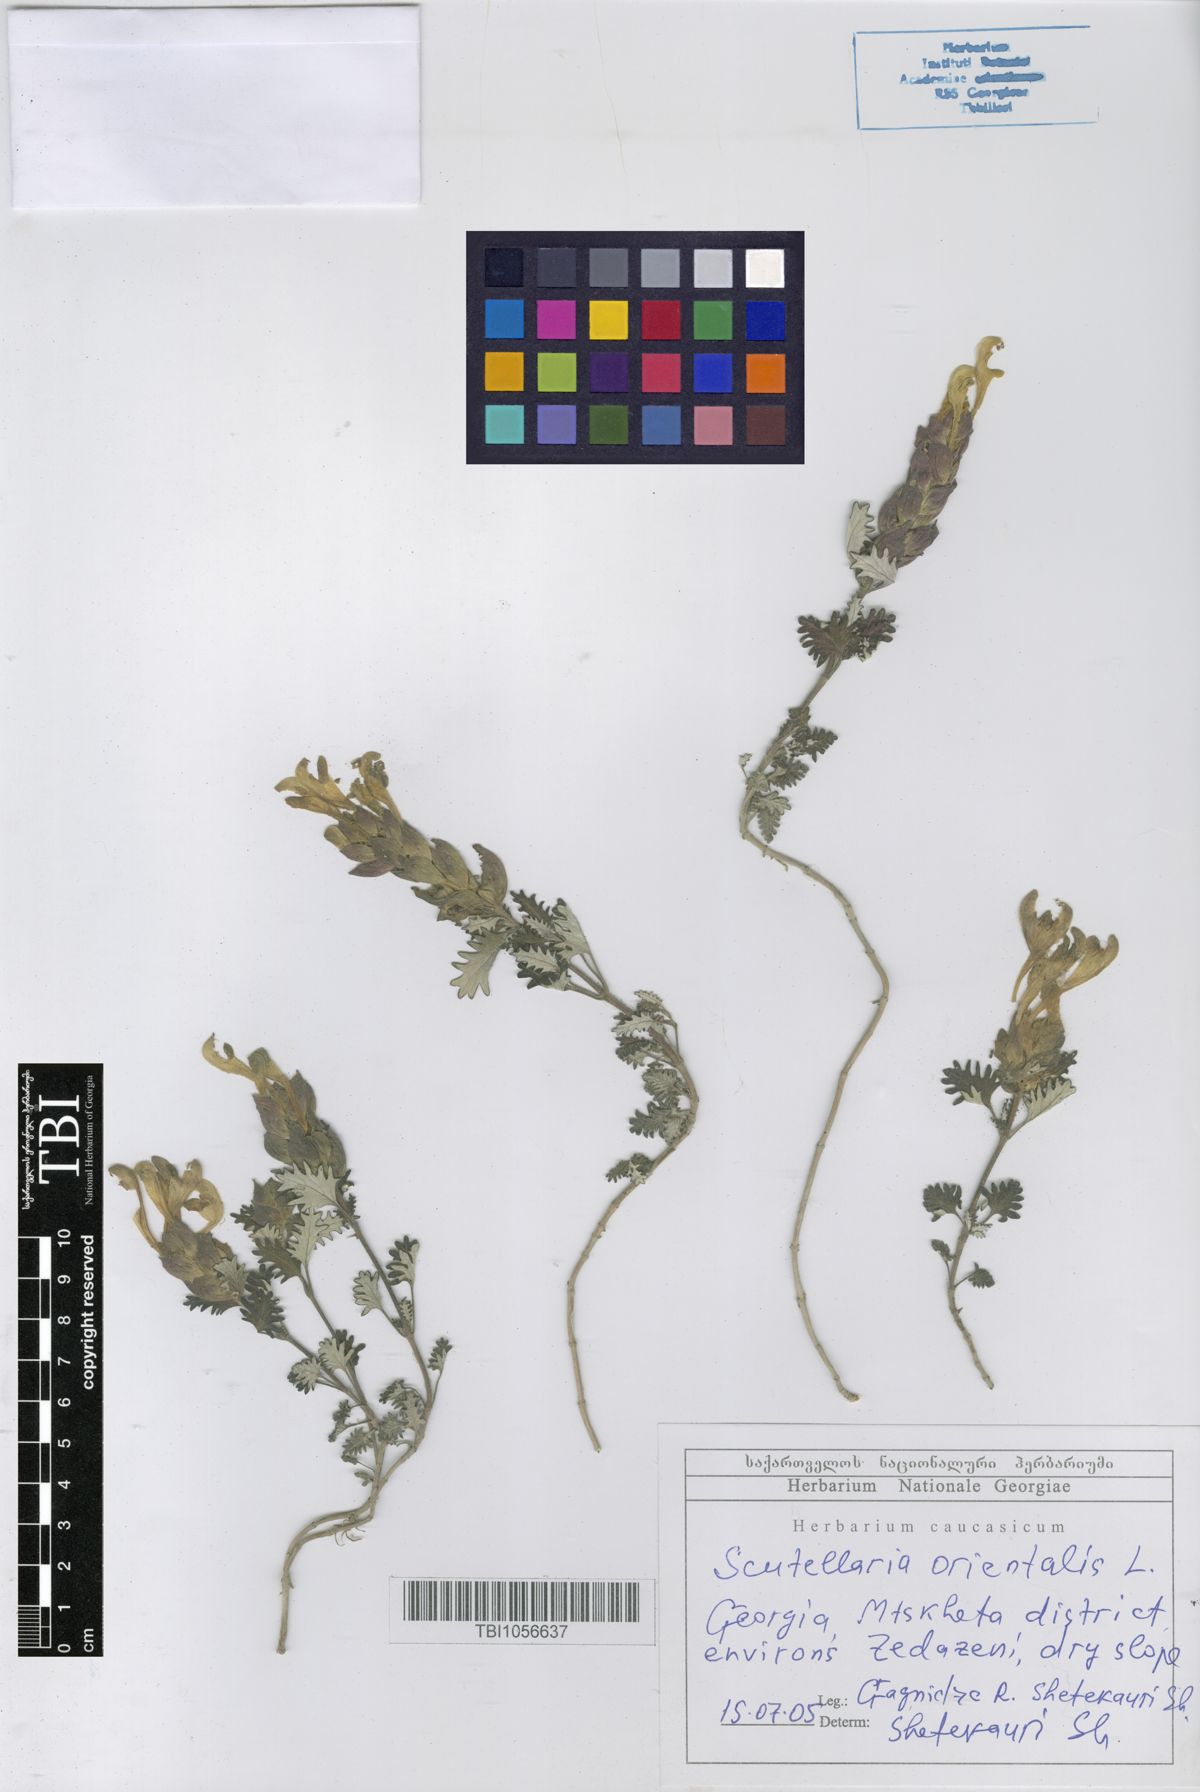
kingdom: Plantae
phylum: Tracheophyta
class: Magnoliopsida
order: Lamiales
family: Lamiaceae
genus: Scutellaria
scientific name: Scutellaria orientalis
